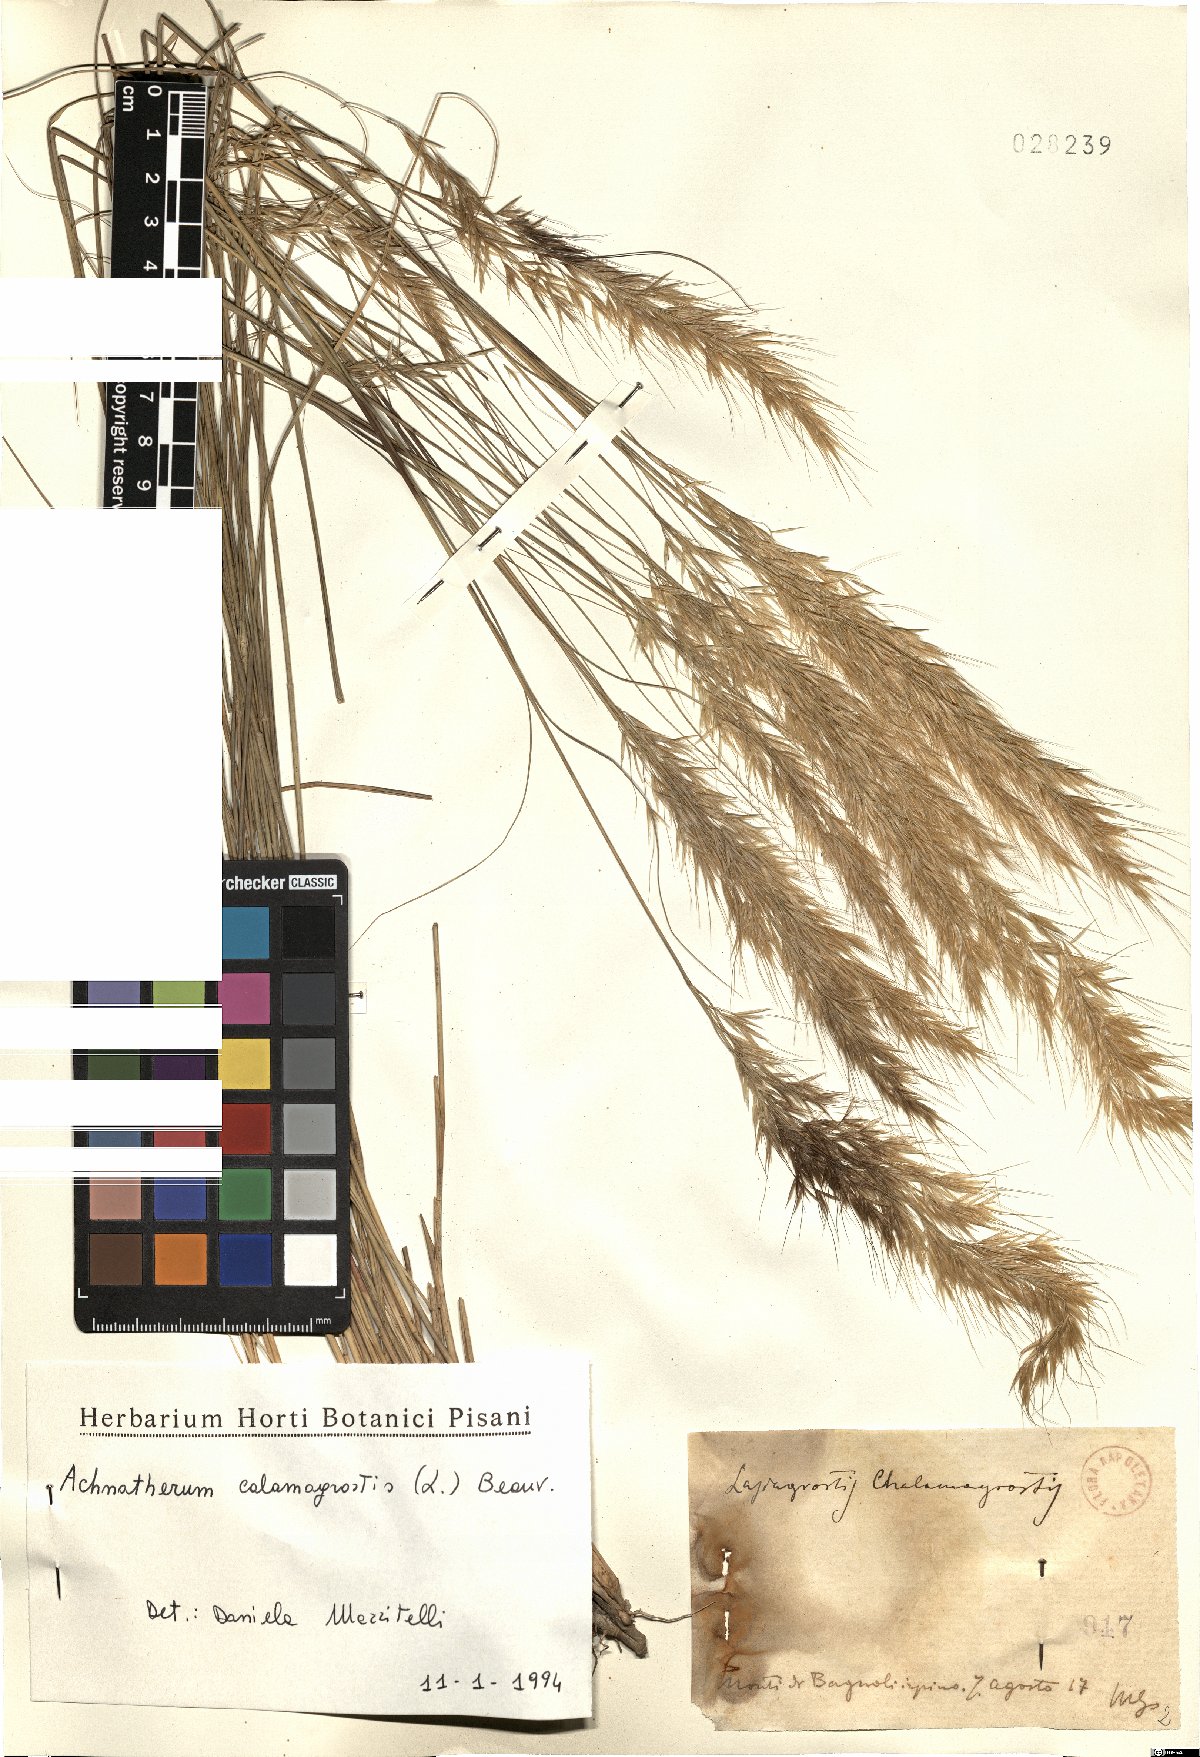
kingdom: Plantae
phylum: Tracheophyta
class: Liliopsida
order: Poales
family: Poaceae
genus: Achnatherum
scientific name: Achnatherum calamagrostis
